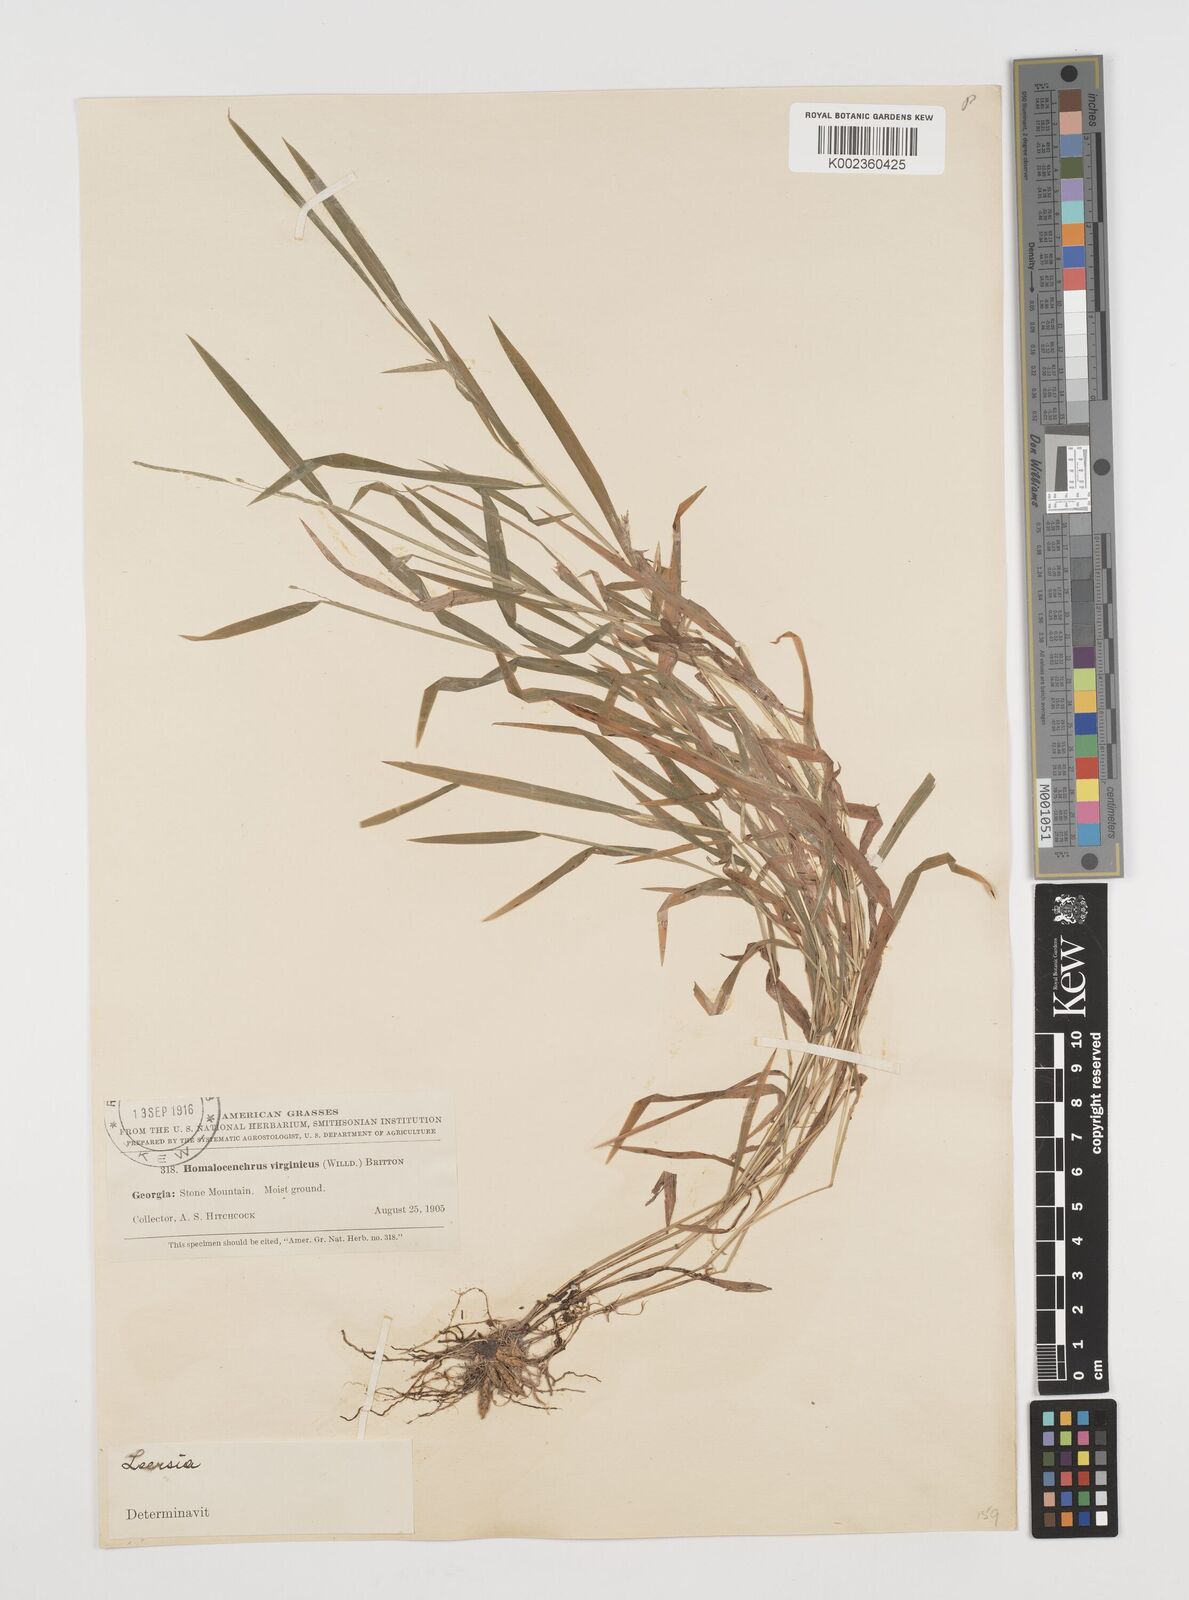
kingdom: Plantae
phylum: Tracheophyta
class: Liliopsida
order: Poales
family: Poaceae
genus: Leersia
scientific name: Leersia virginica
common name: White cutgrass
